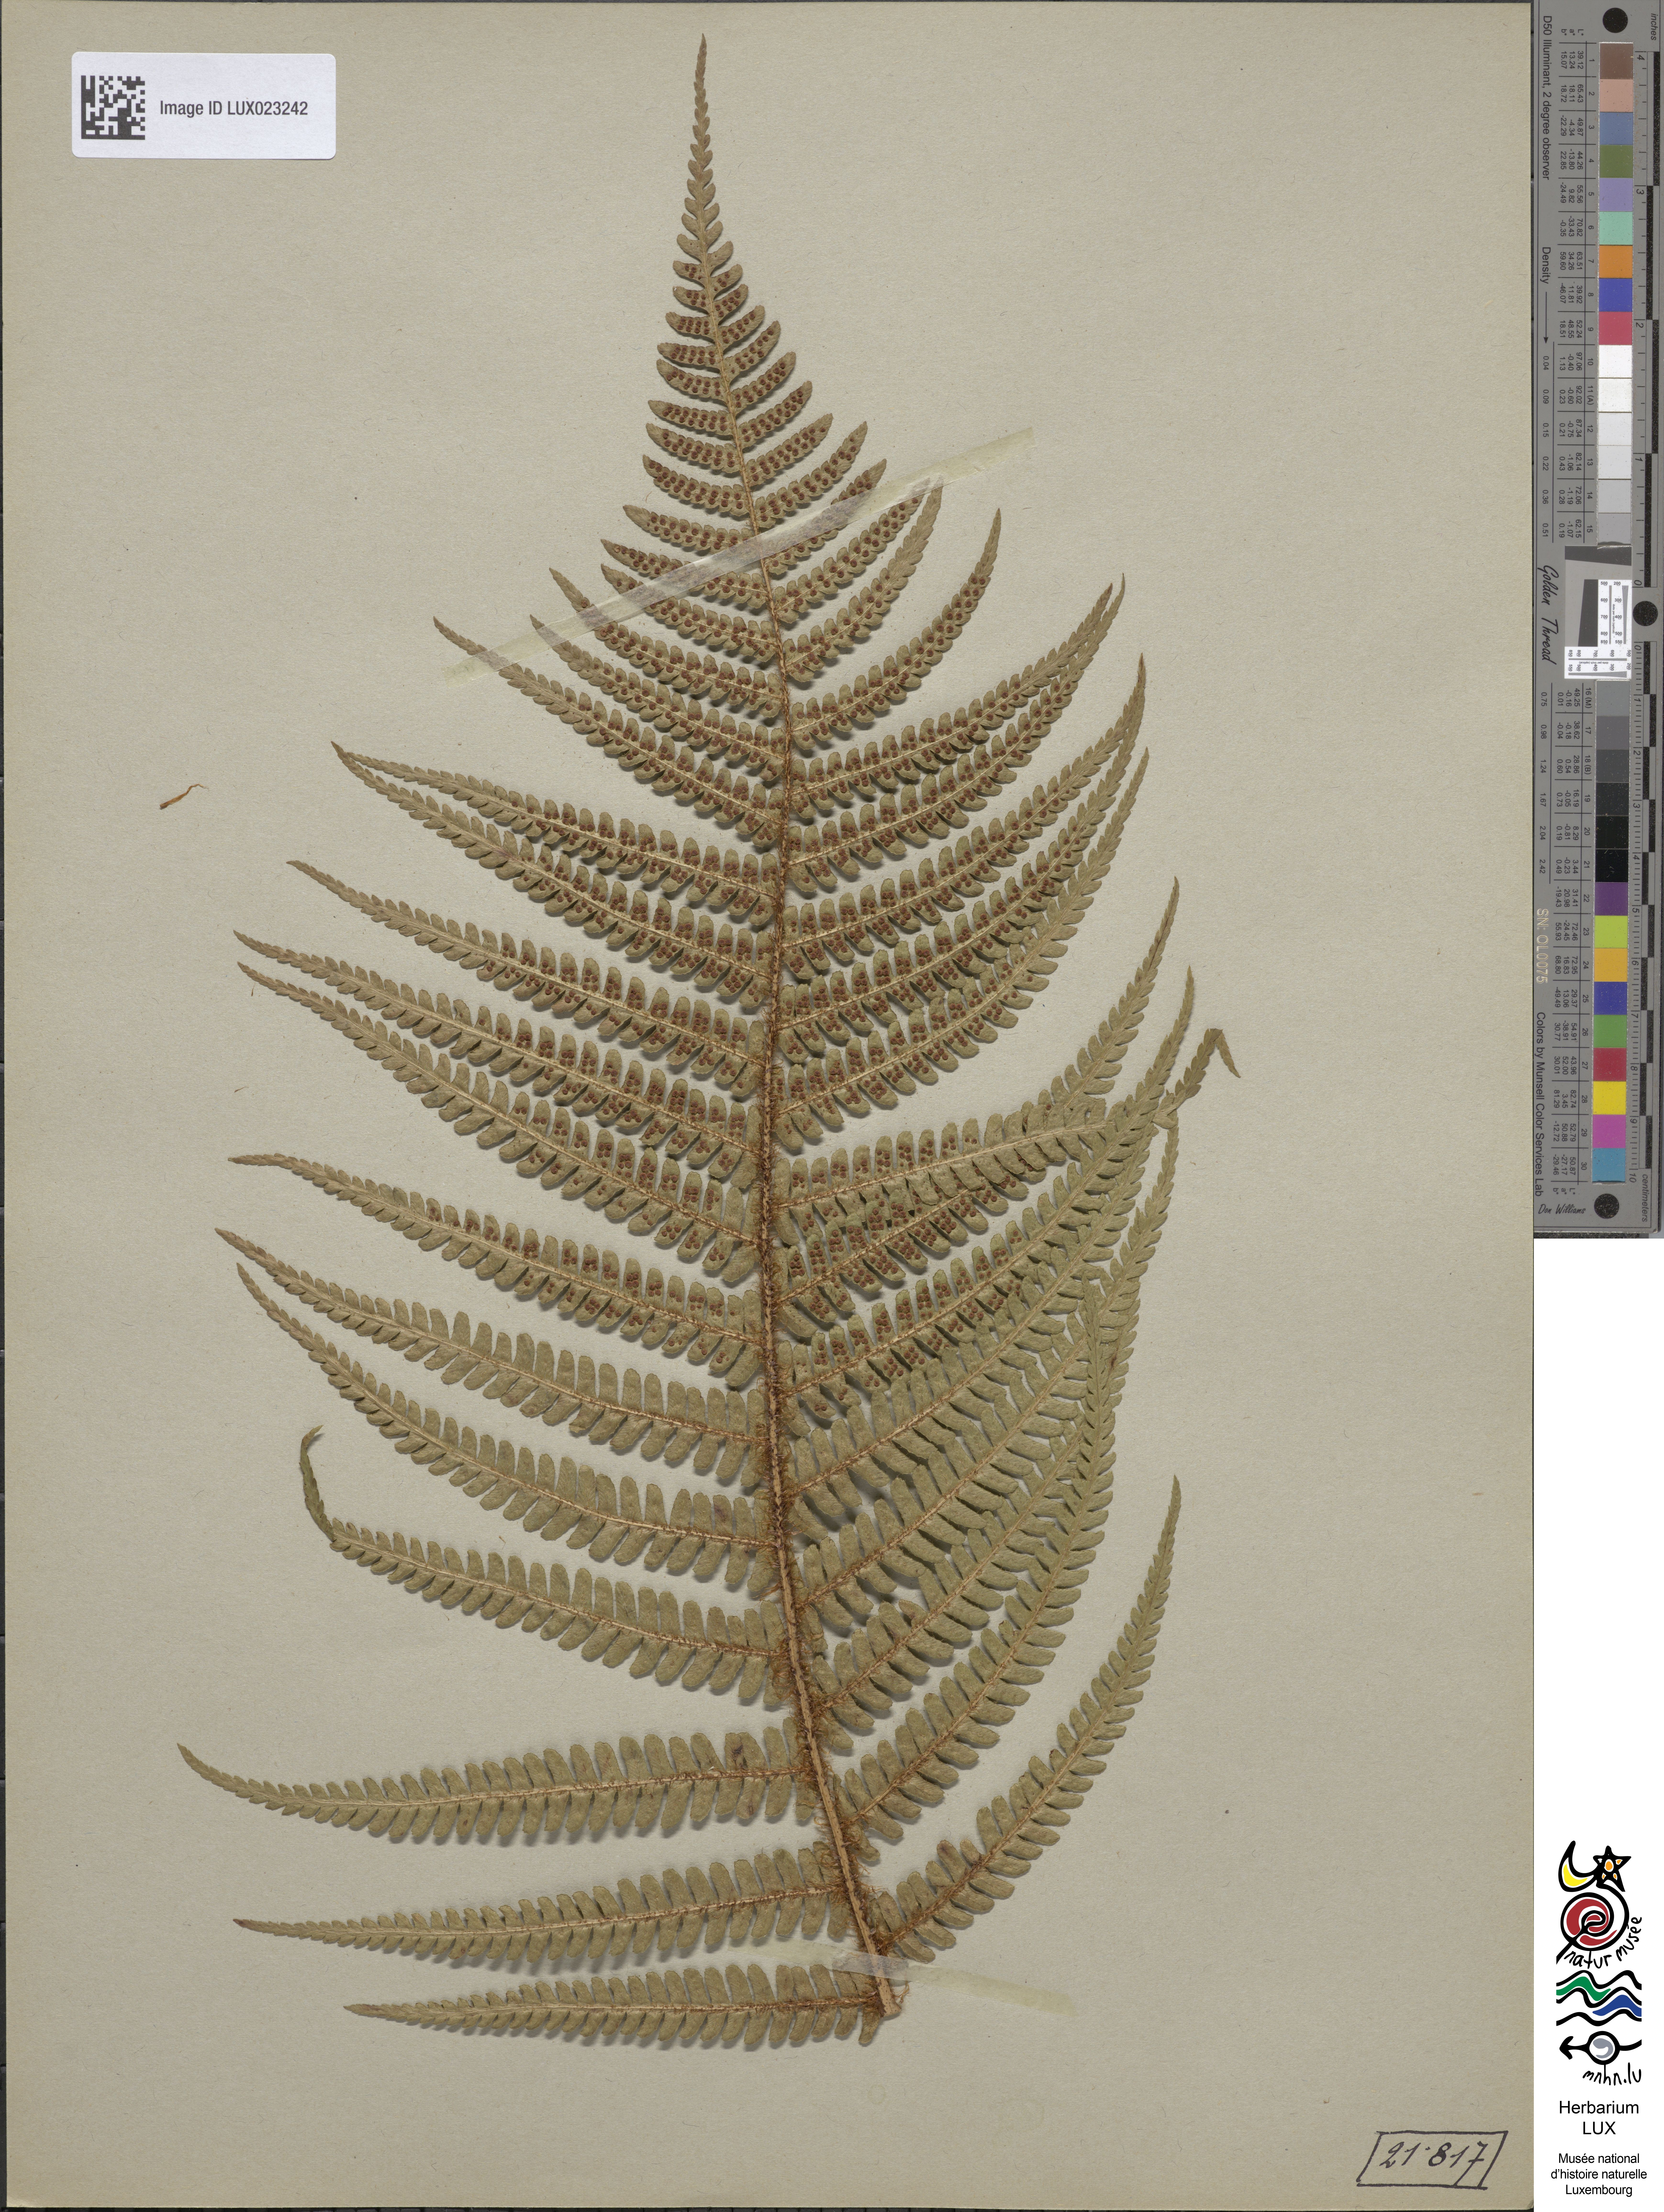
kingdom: Plantae
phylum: Tracheophyta
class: Polypodiopsida
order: Polypodiales
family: Dryopteridaceae
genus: Dryopteris
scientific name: Dryopteris
